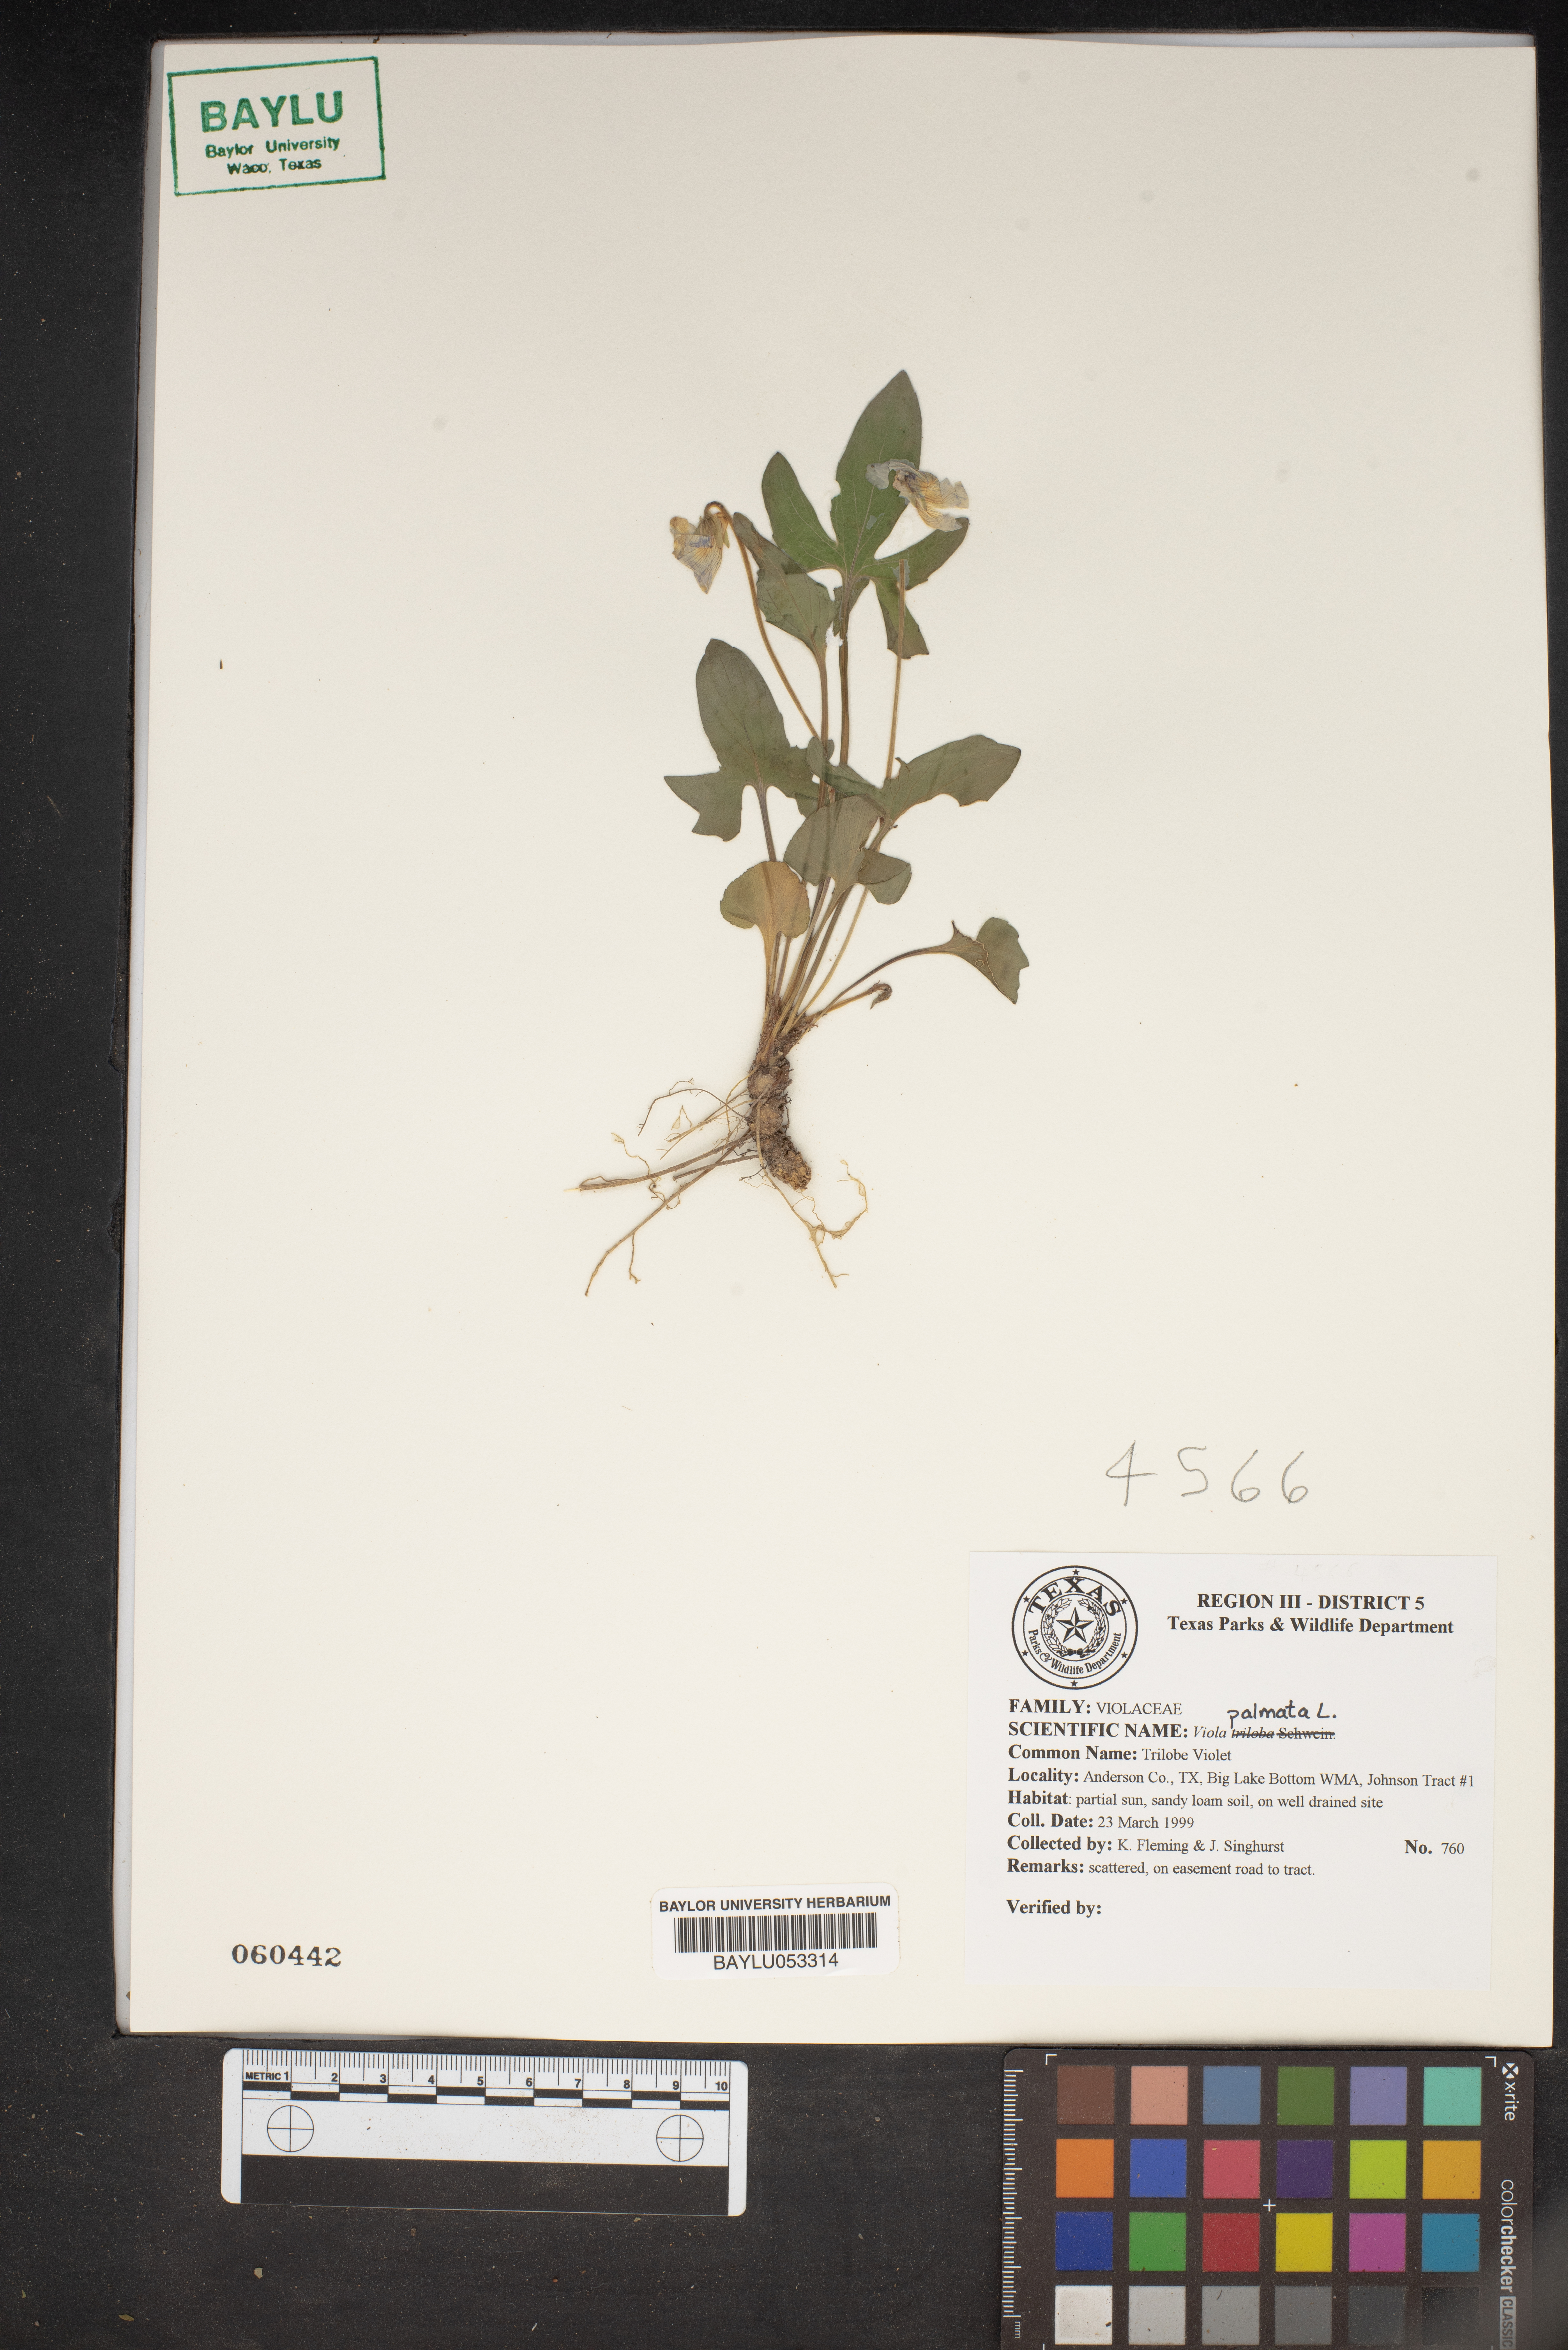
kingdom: Plantae
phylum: Tracheophyta
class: Magnoliopsida
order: Malpighiales
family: Violaceae
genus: Viola
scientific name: Viola palmata
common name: Early blue violet
